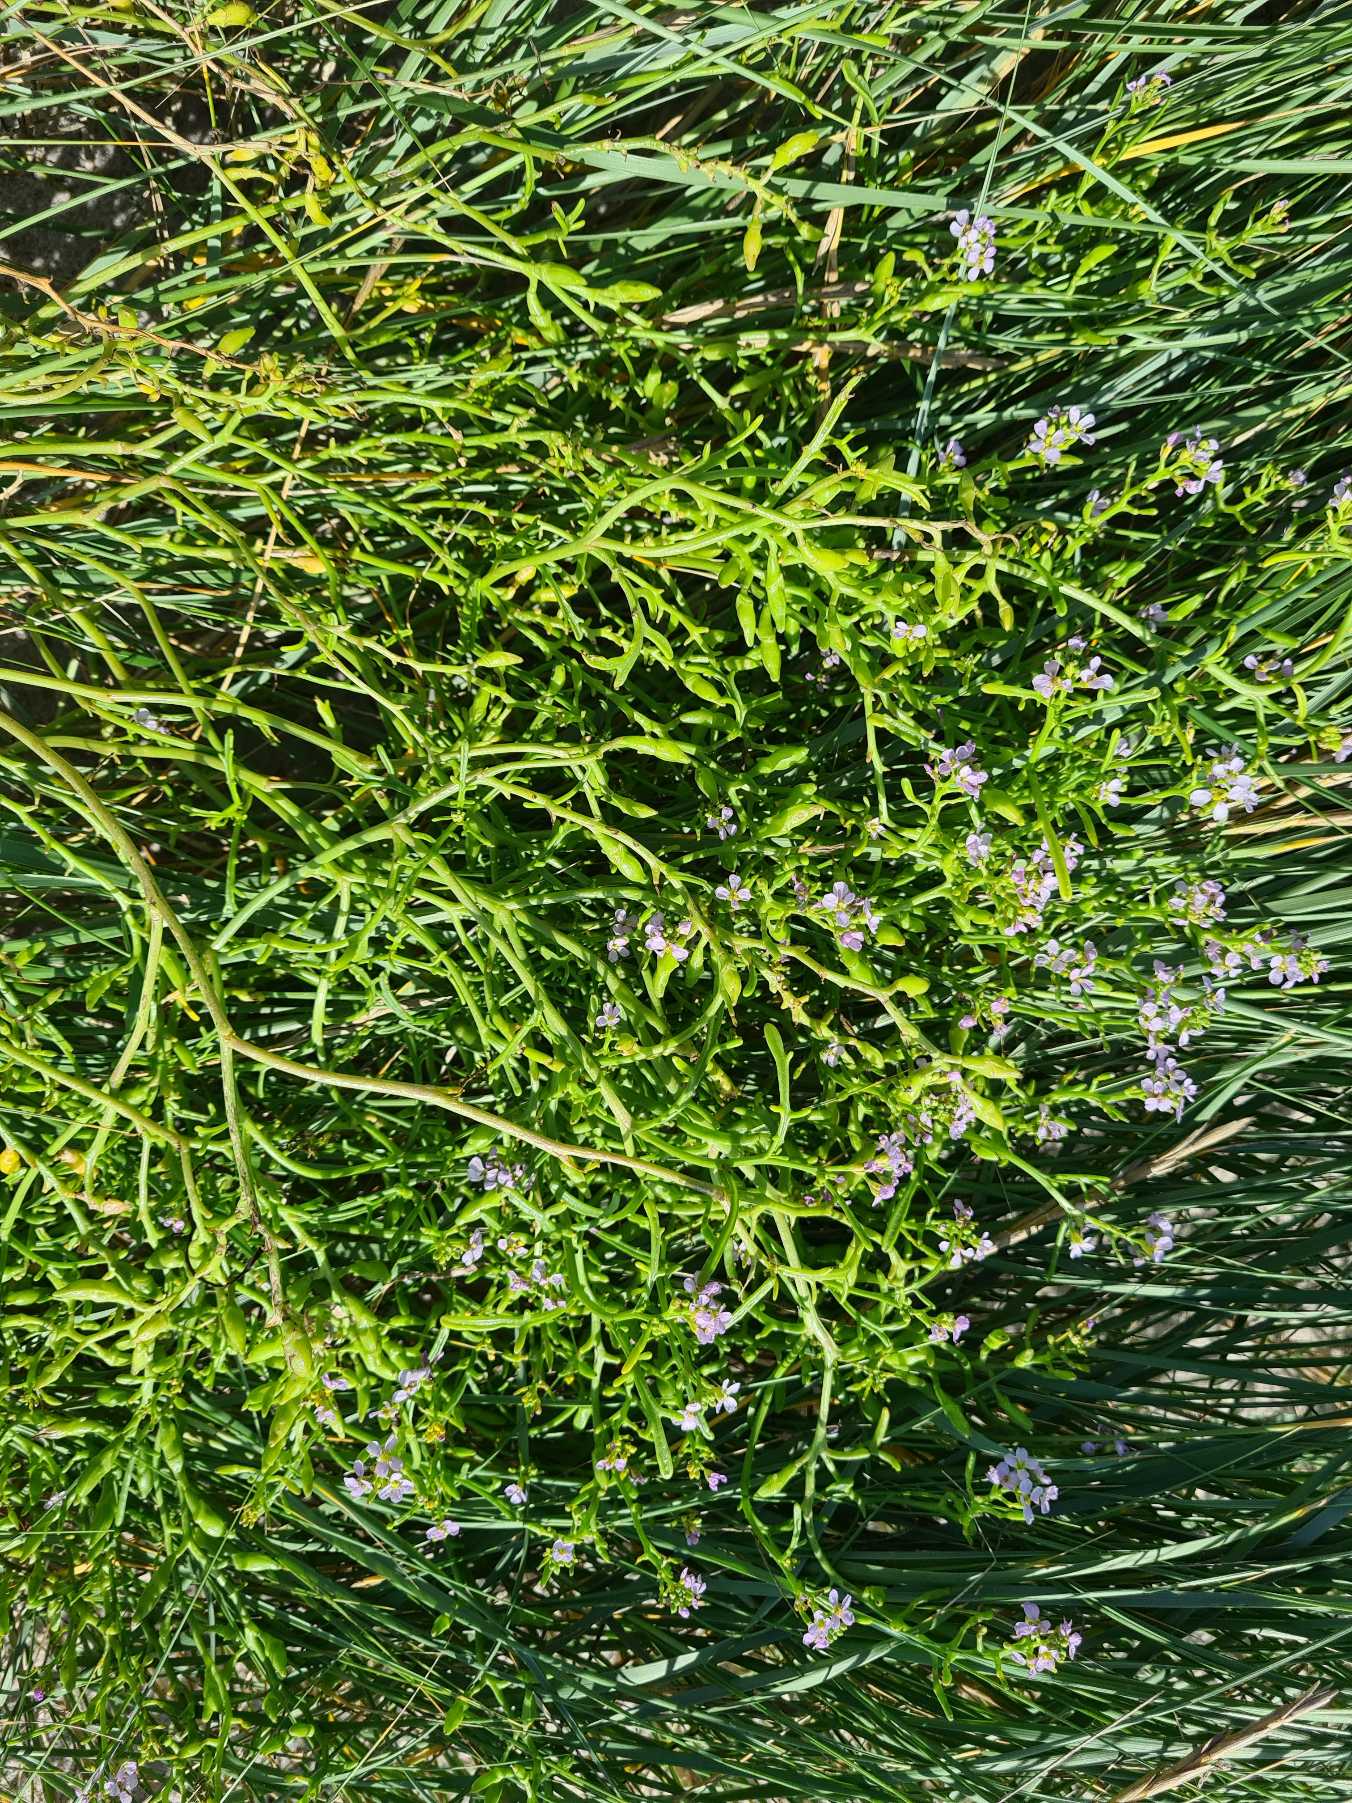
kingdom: Plantae
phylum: Tracheophyta
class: Magnoliopsida
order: Brassicales
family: Brassicaceae
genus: Cakile
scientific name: Cakile maritima
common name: Strandsennep
